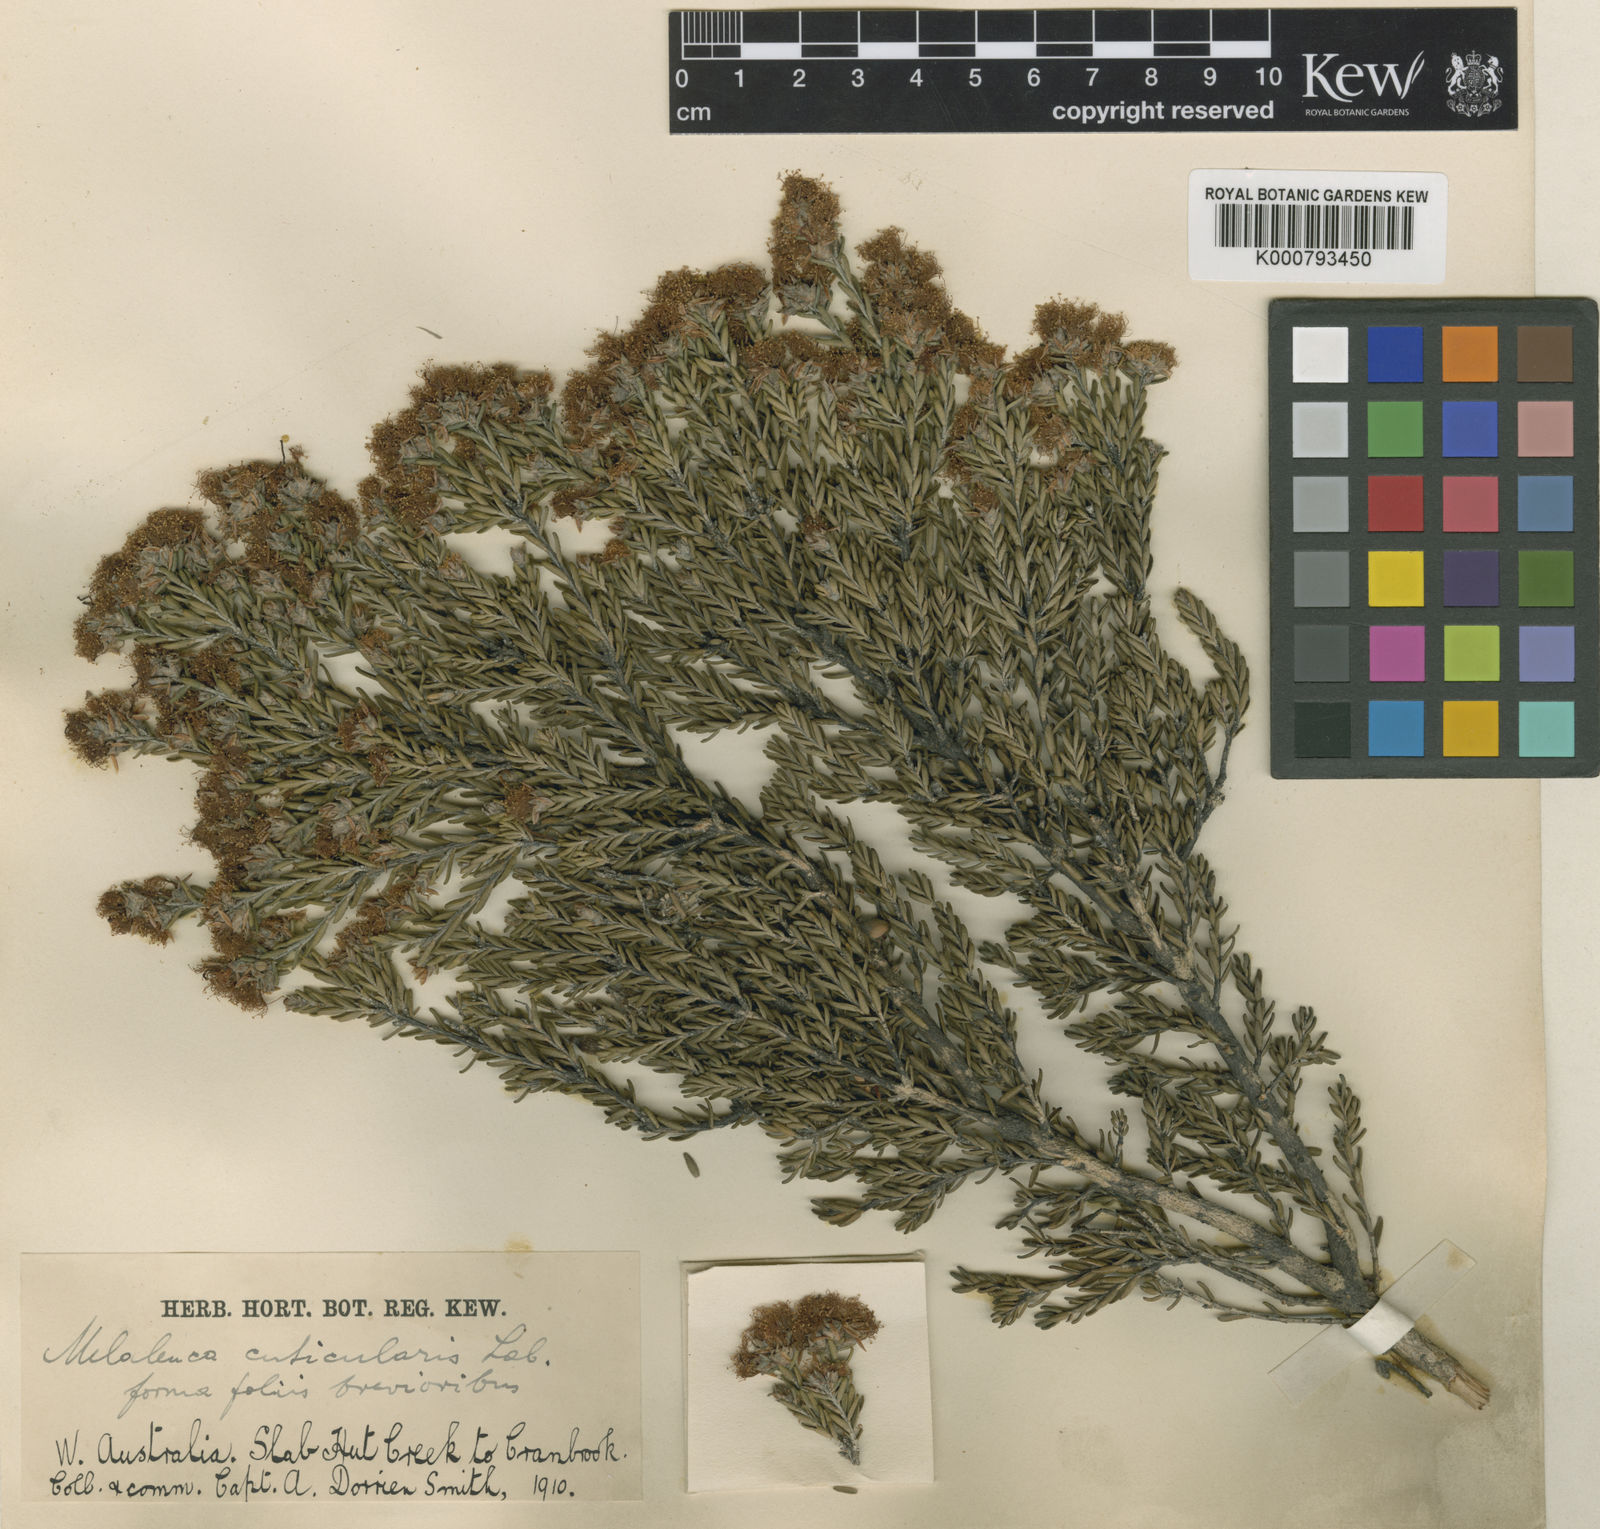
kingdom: Plantae
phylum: Tracheophyta
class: Magnoliopsida
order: Myrtales
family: Myrtaceae
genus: Melaleuca
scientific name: Melaleuca cuticularis
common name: Saltwater paperbark
